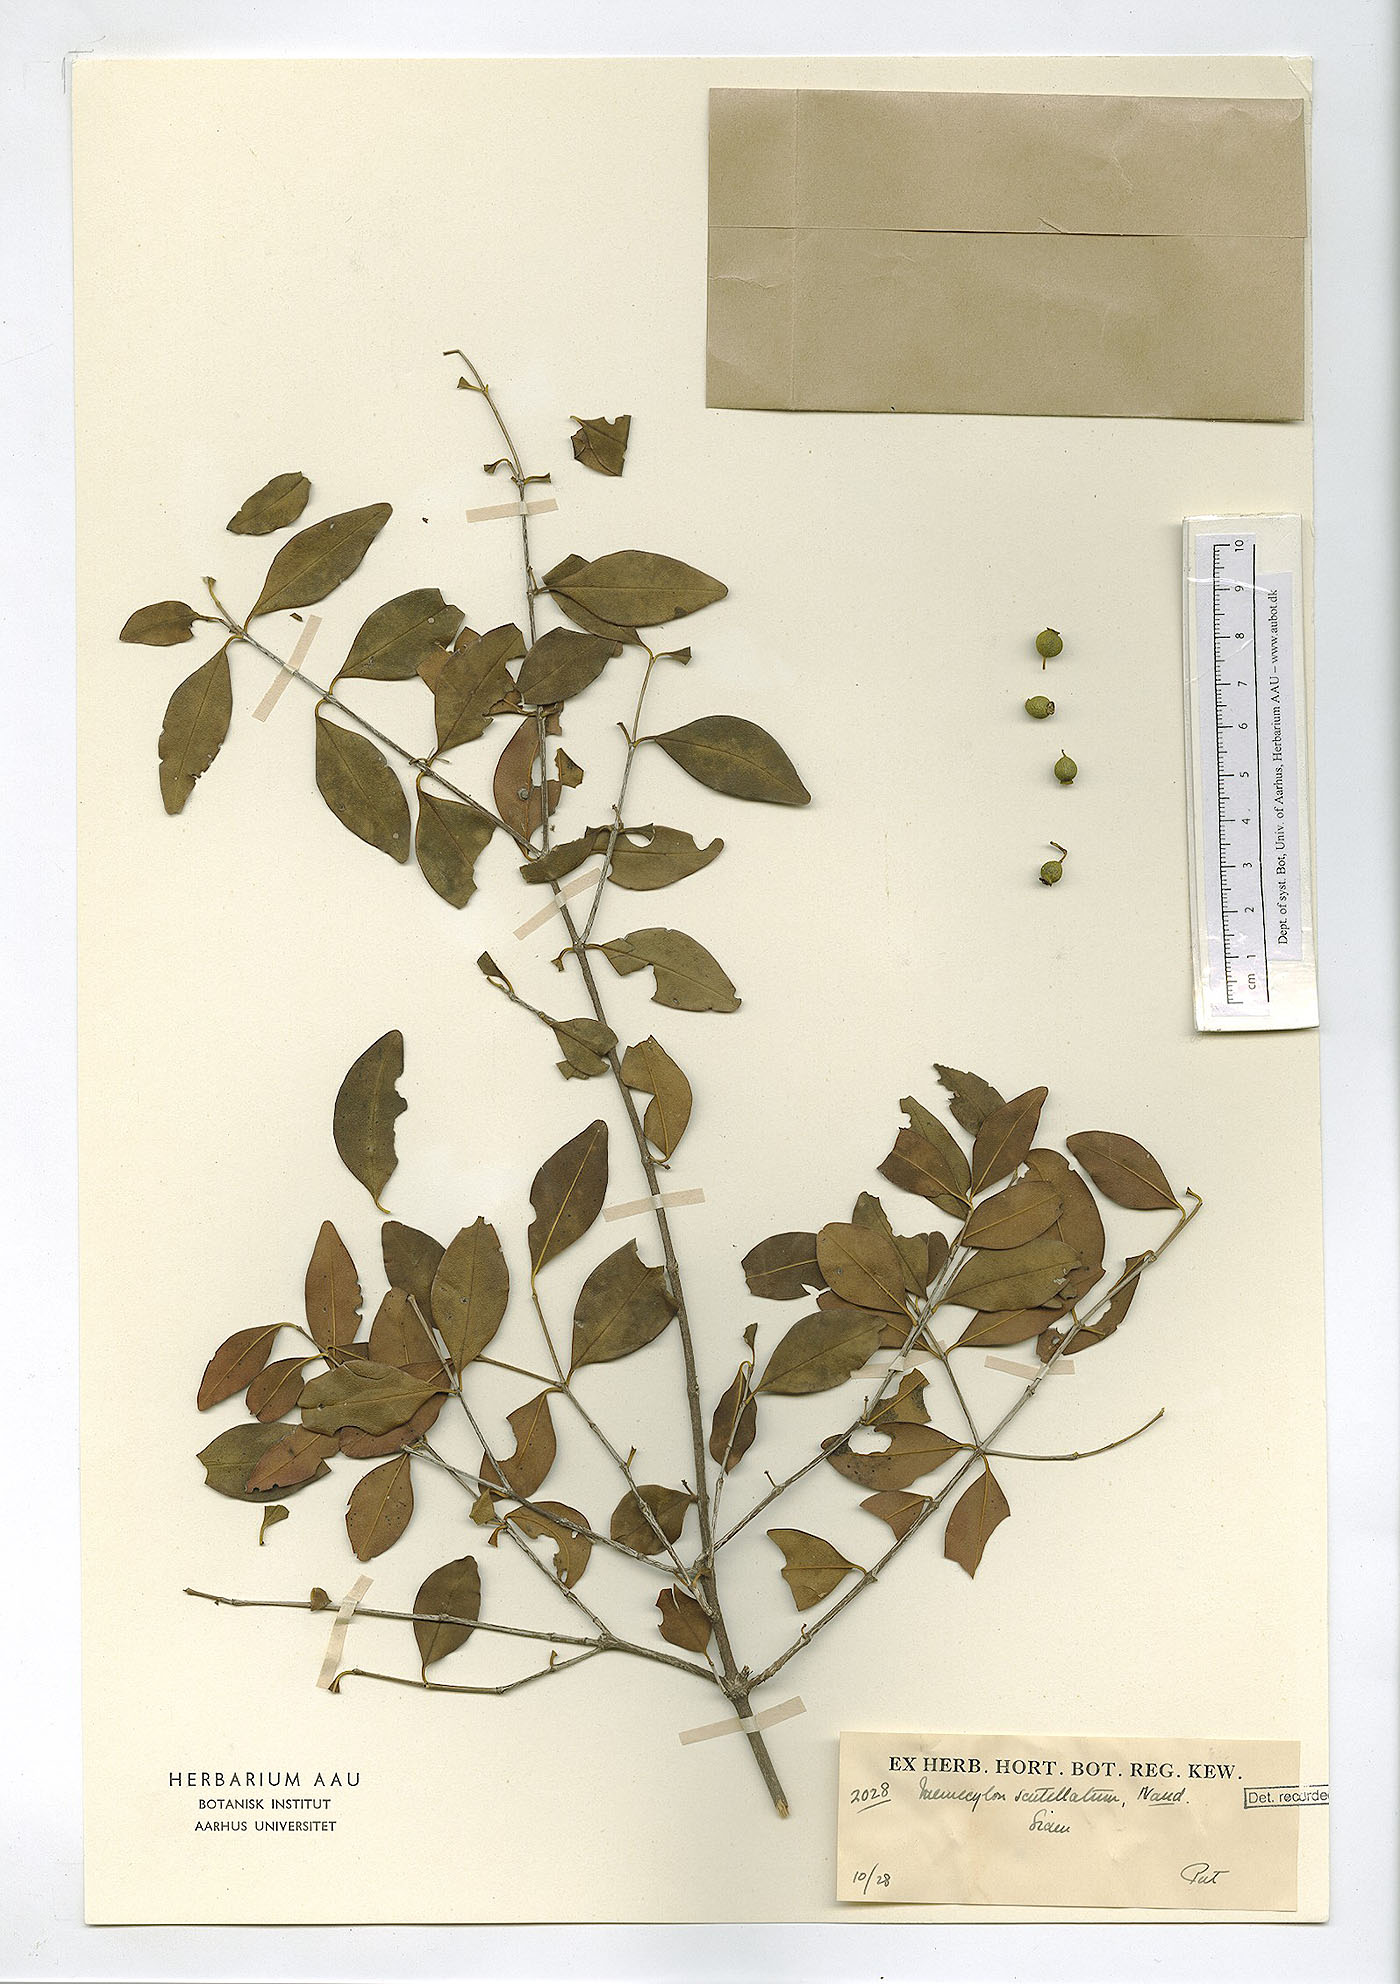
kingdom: Plantae
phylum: Tracheophyta
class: Magnoliopsida
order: Myrtales
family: Melastomataceae
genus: Memecylon
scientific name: Memecylon scutellatum
